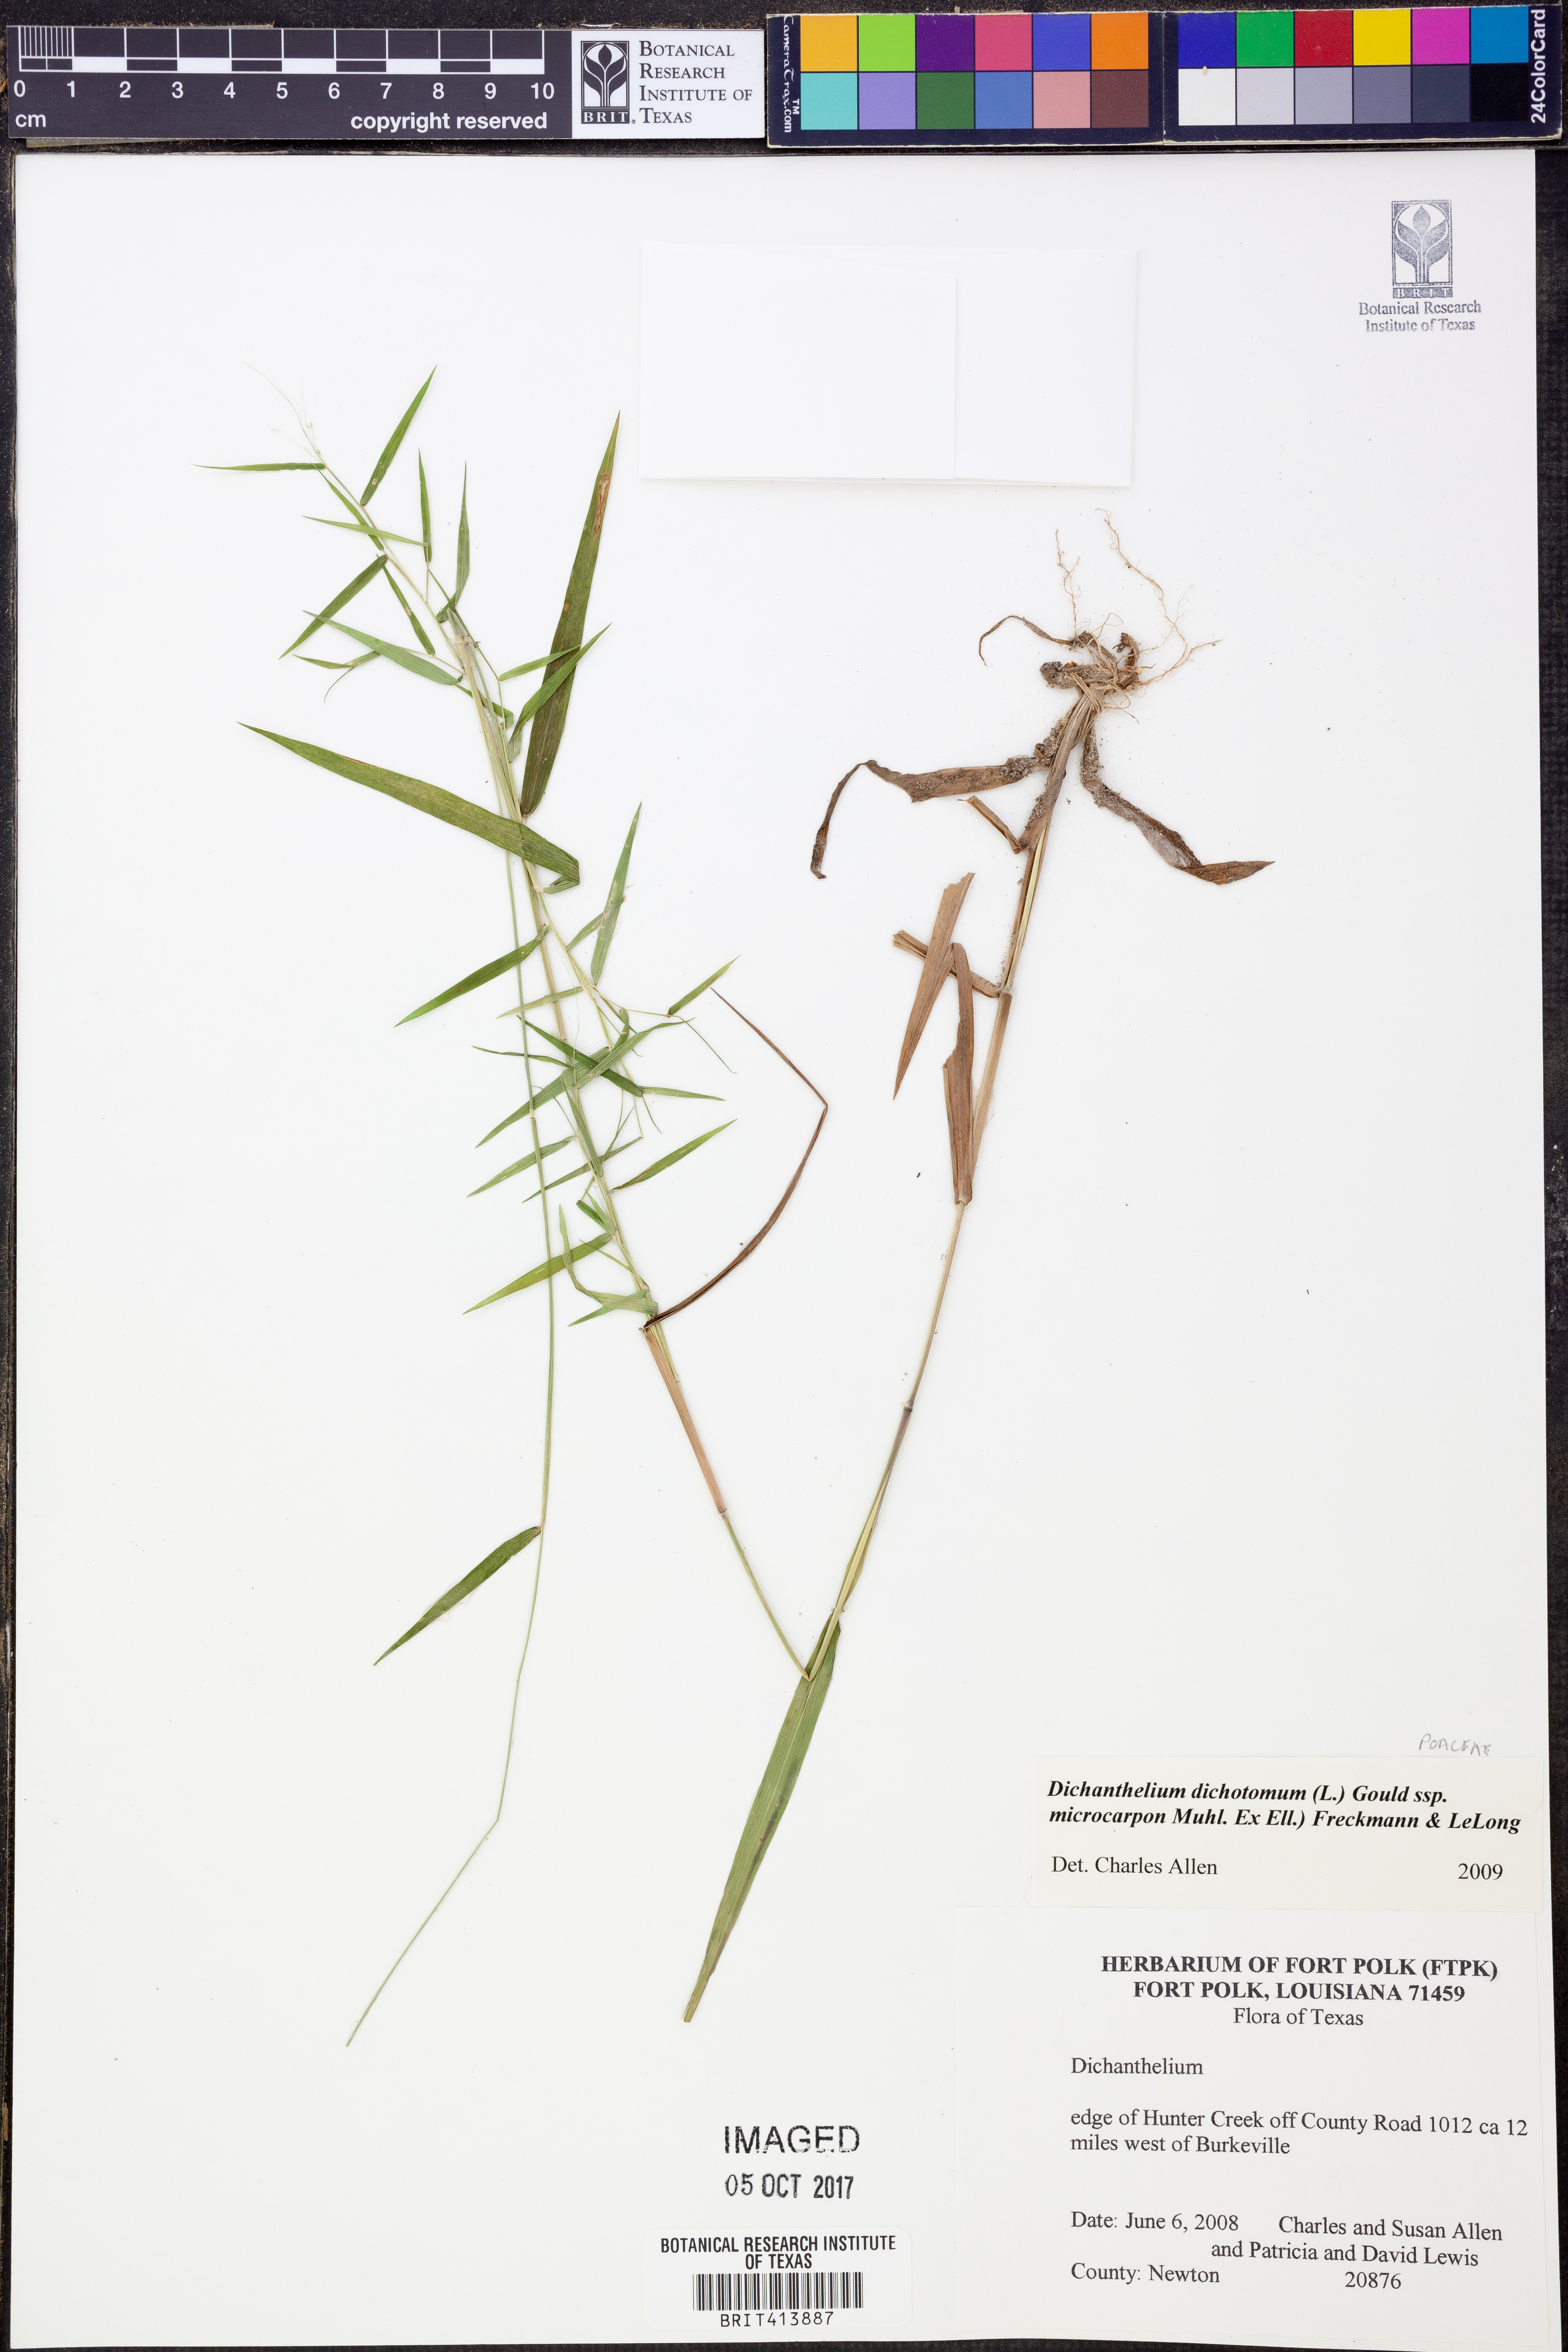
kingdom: Plantae
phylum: Tracheophyta
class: Liliopsida
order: Poales
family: Poaceae
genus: Dichanthelium
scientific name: Dichanthelium microcarpon
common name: Small-fruited witchgrass
